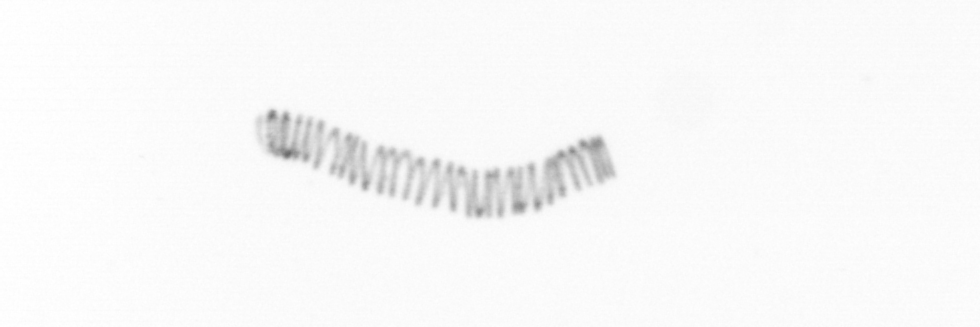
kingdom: Chromista
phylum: Ochrophyta
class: Bacillariophyceae
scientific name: Bacillariophyceae
